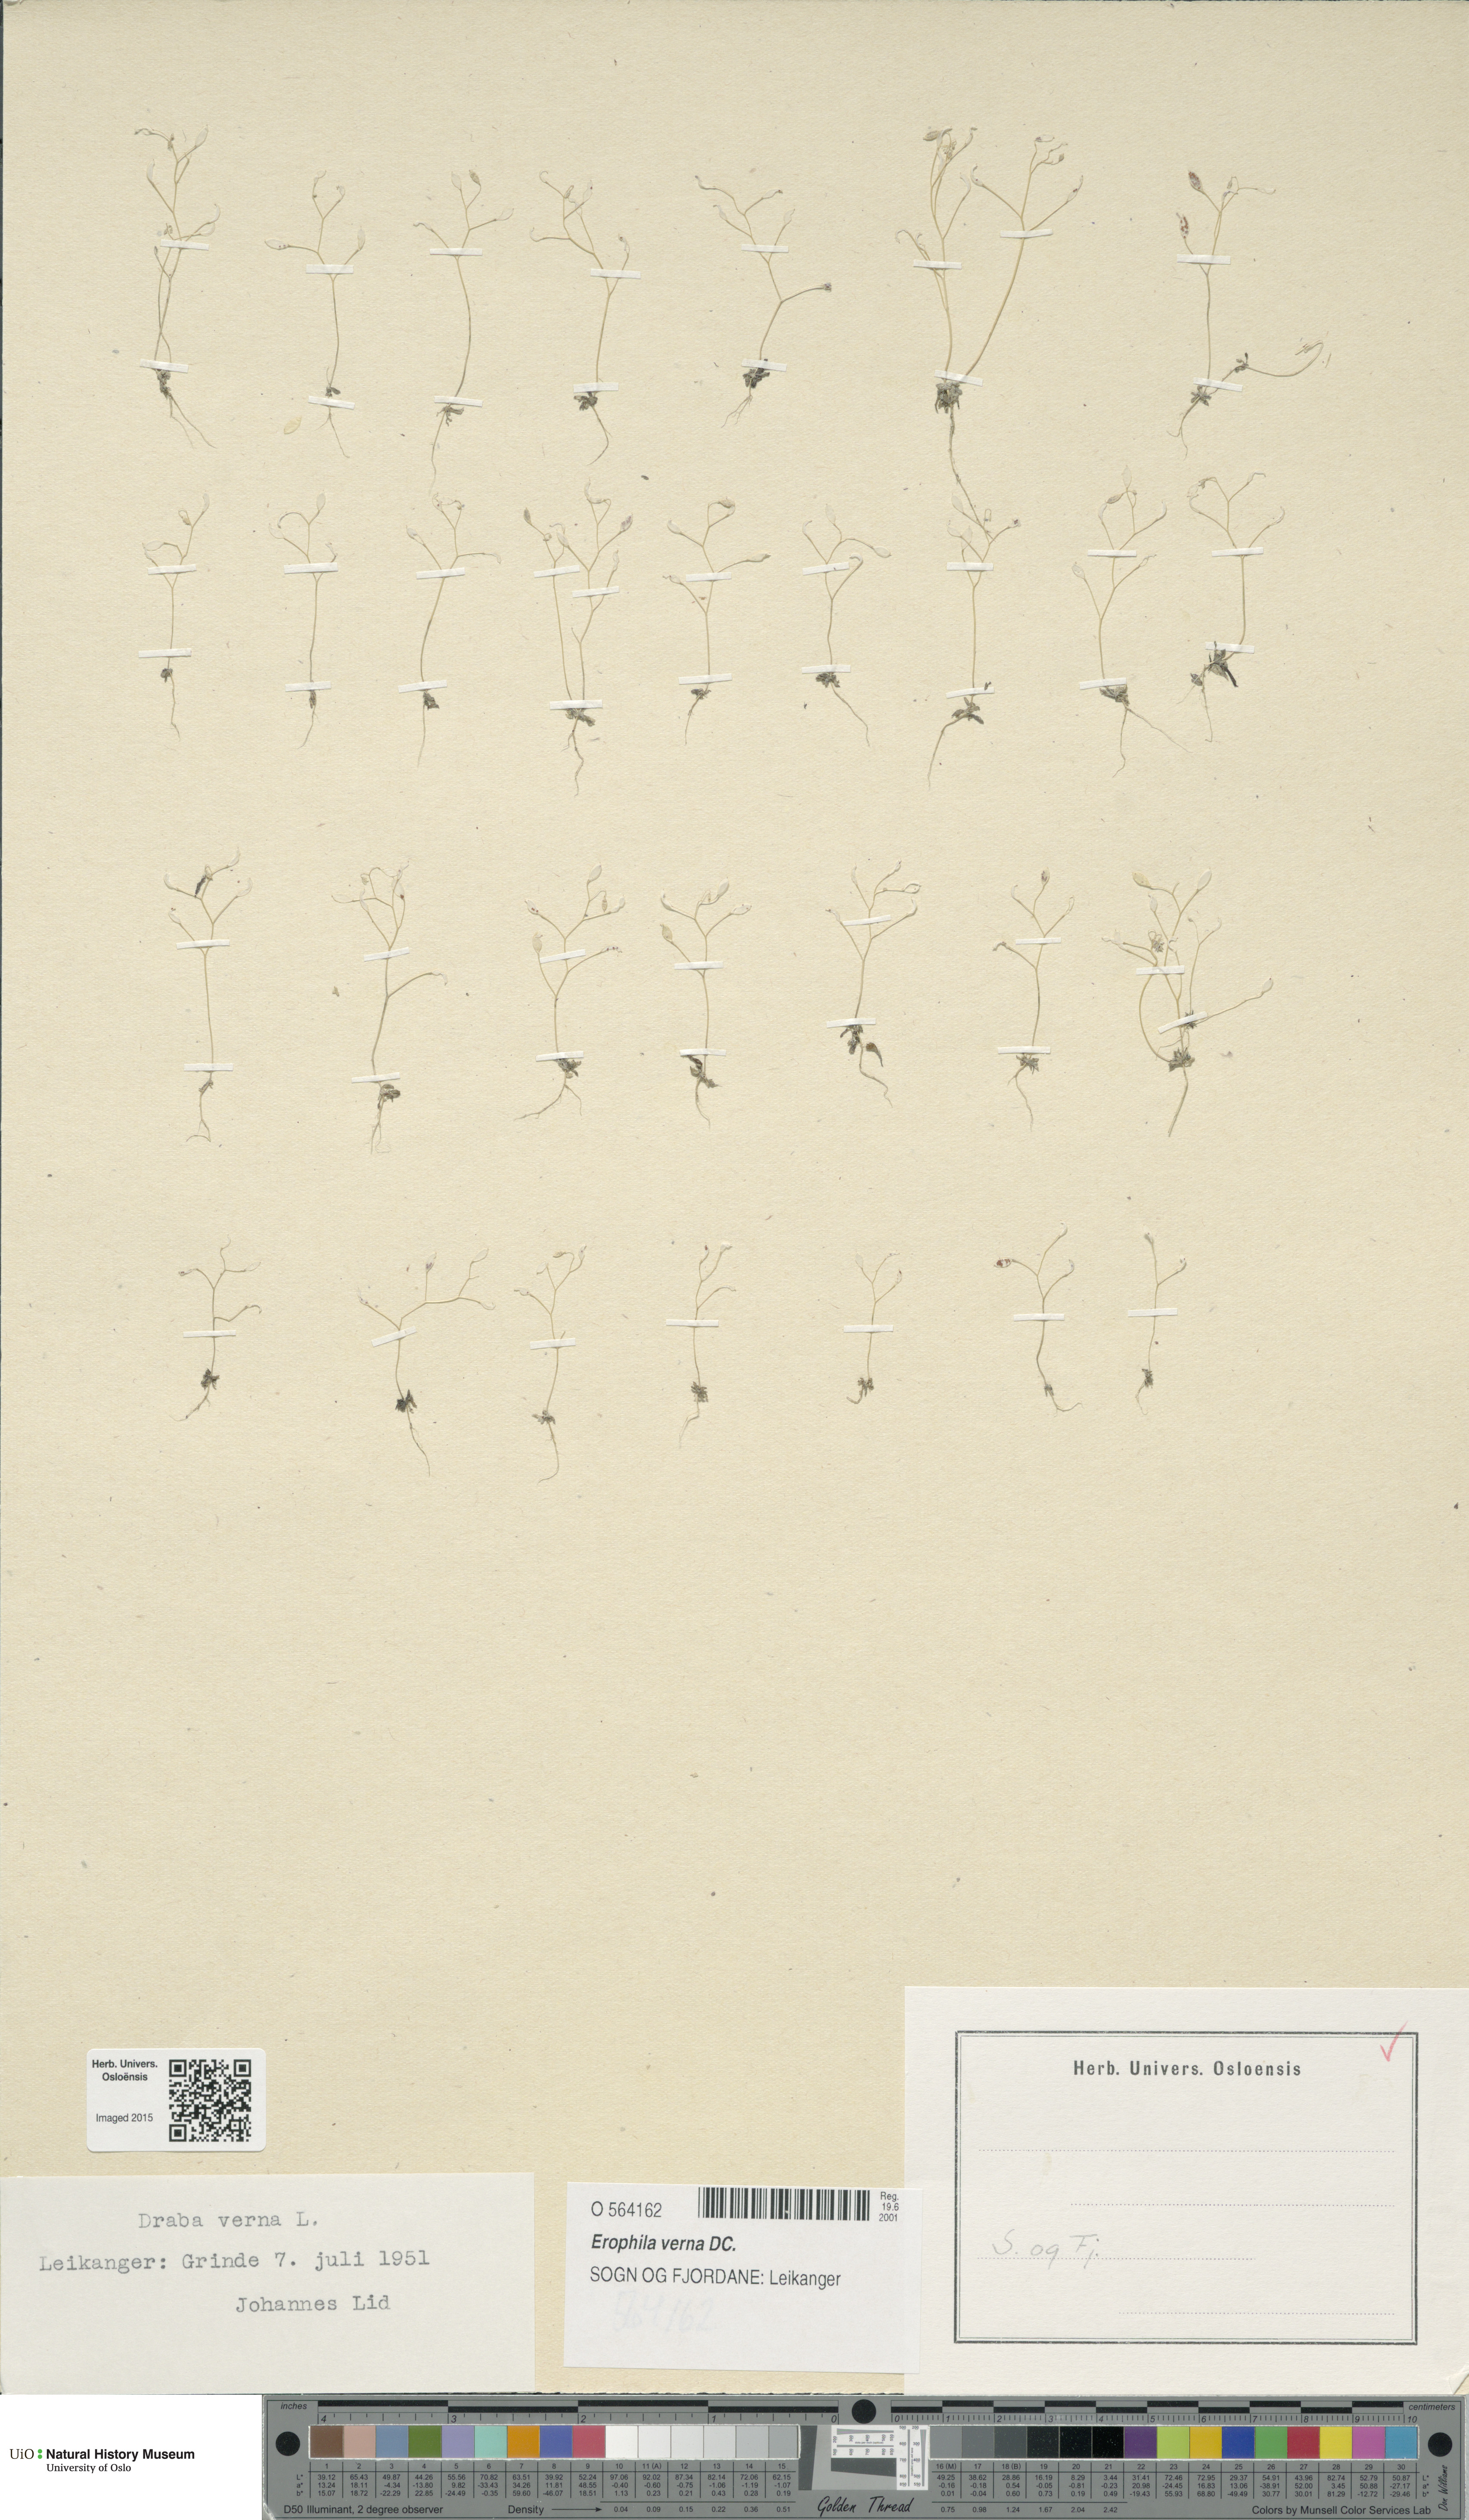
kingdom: Plantae
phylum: Tracheophyta
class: Magnoliopsida
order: Brassicales
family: Brassicaceae
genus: Draba
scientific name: Draba verna
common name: Spring draba
